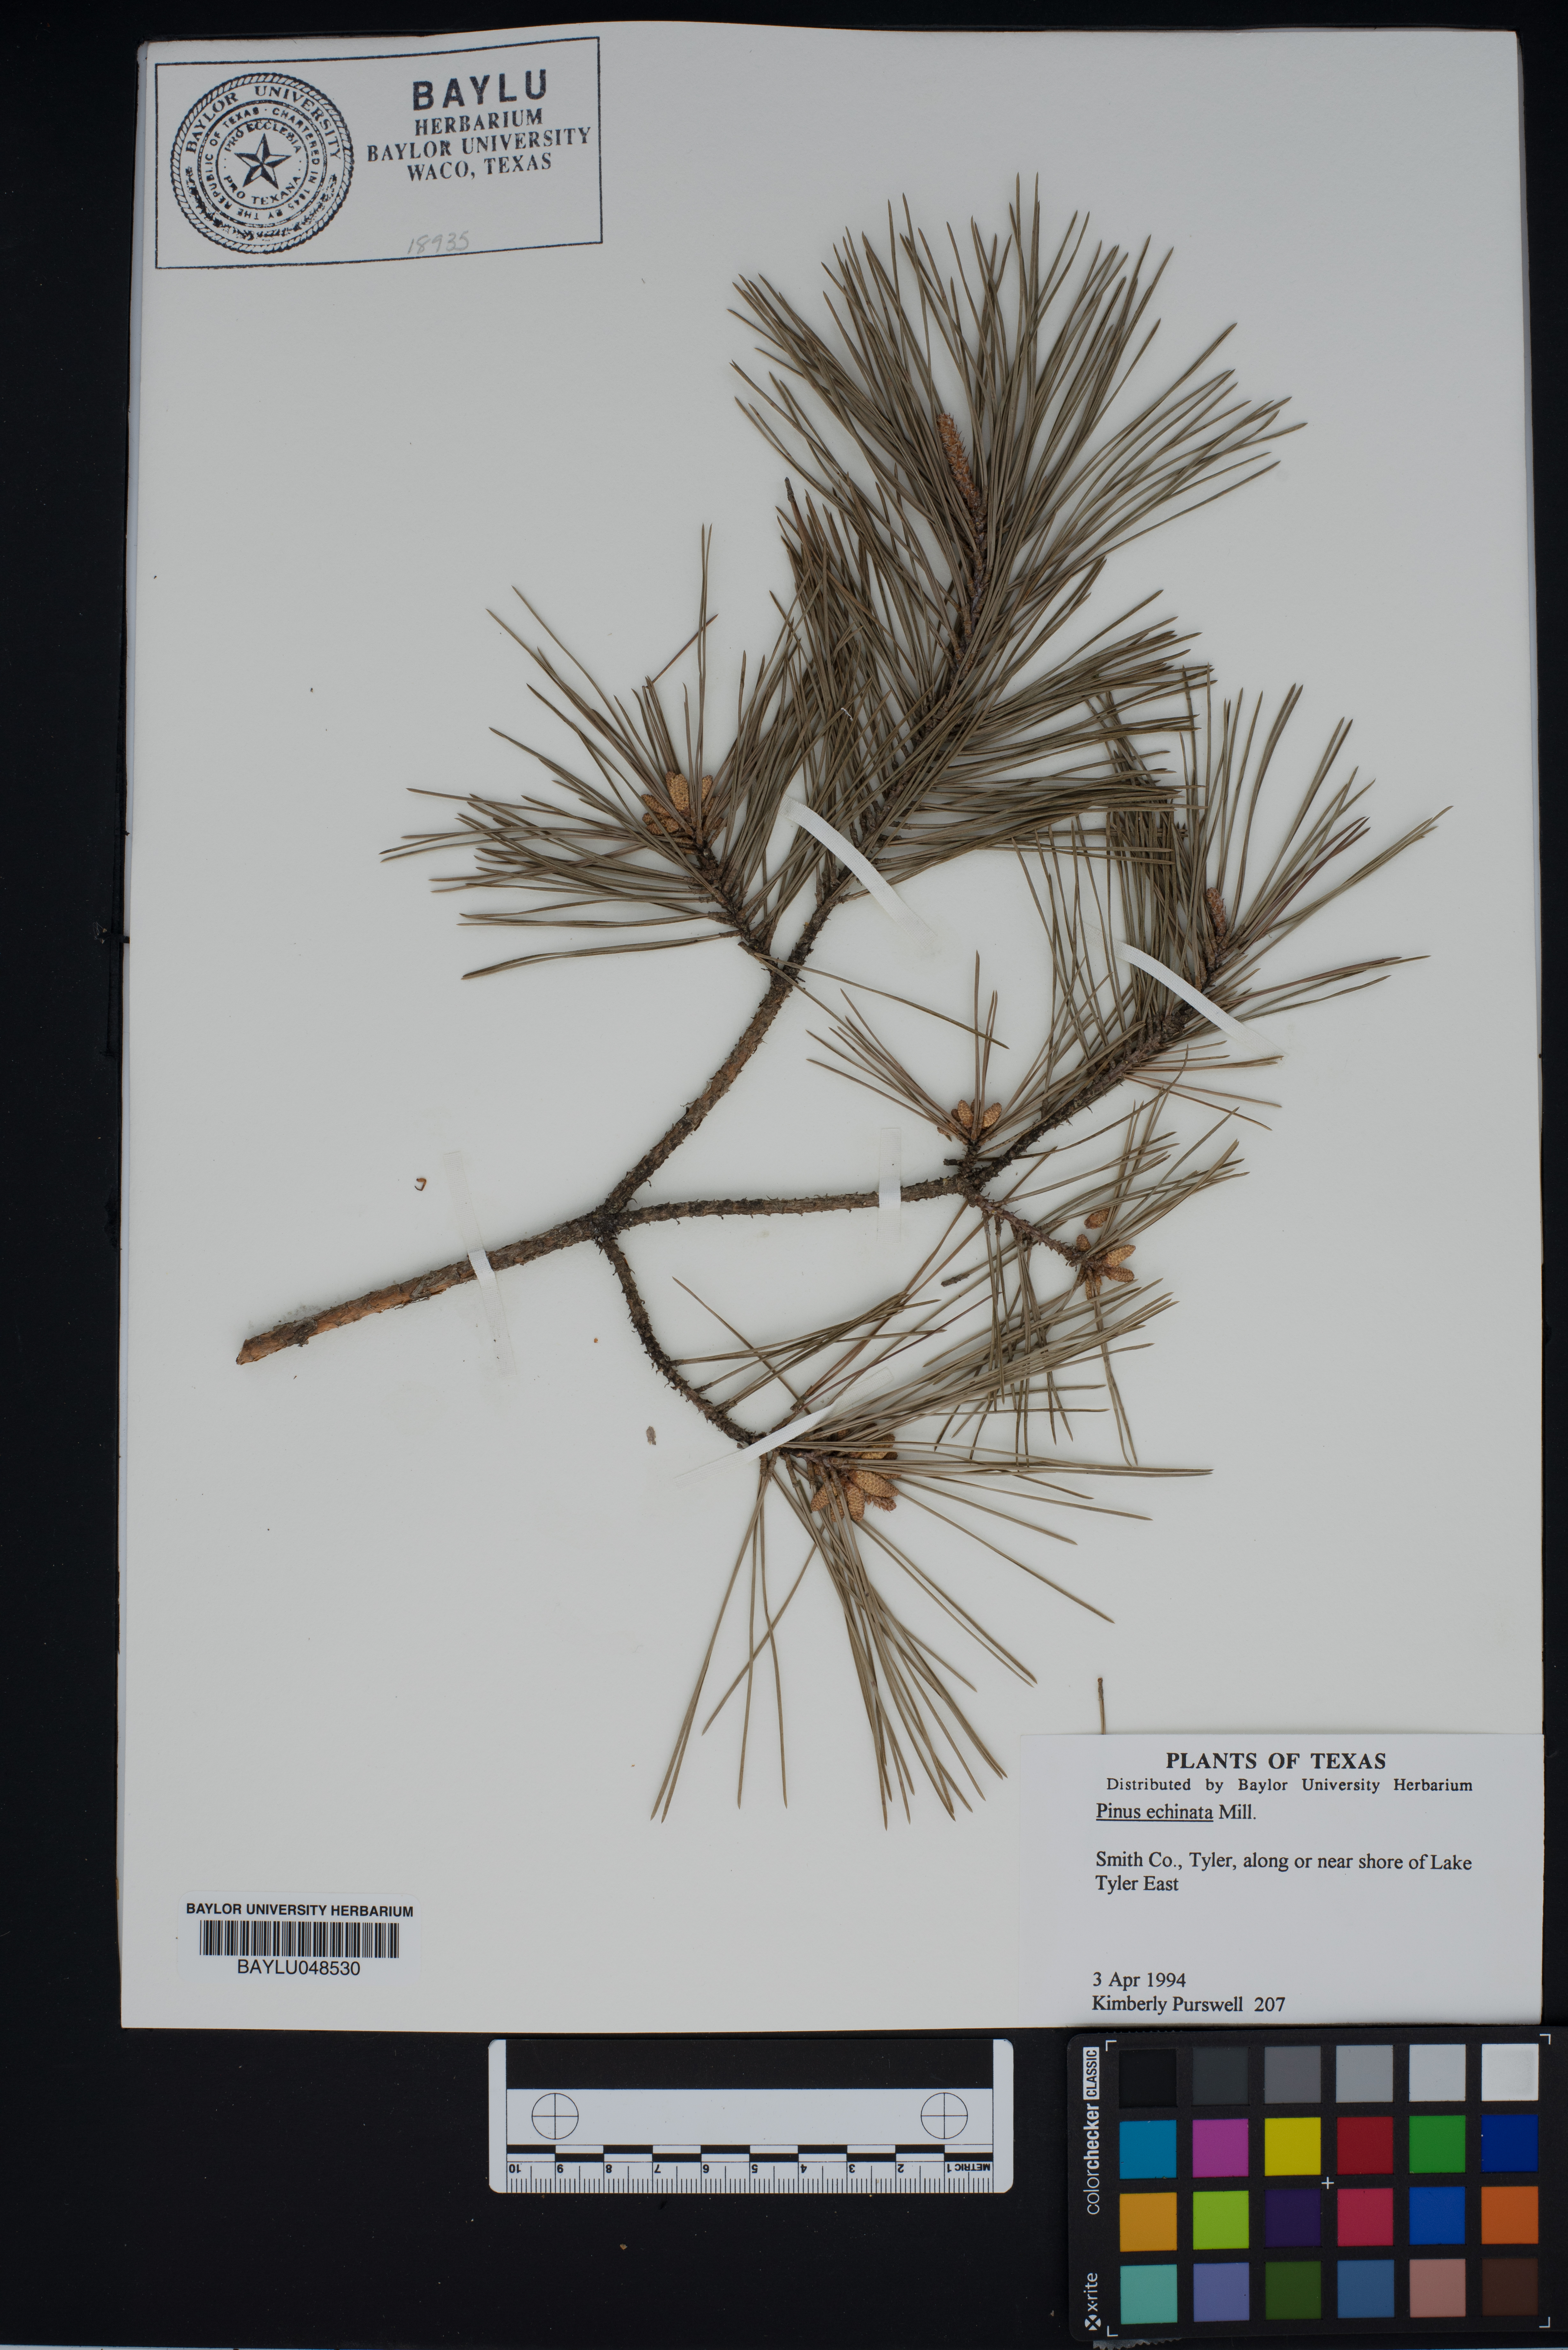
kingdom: Plantae
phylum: Tracheophyta
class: Pinopsida
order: Pinales
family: Pinaceae
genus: Pinus
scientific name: Pinus echinata
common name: Shortleaf pine
